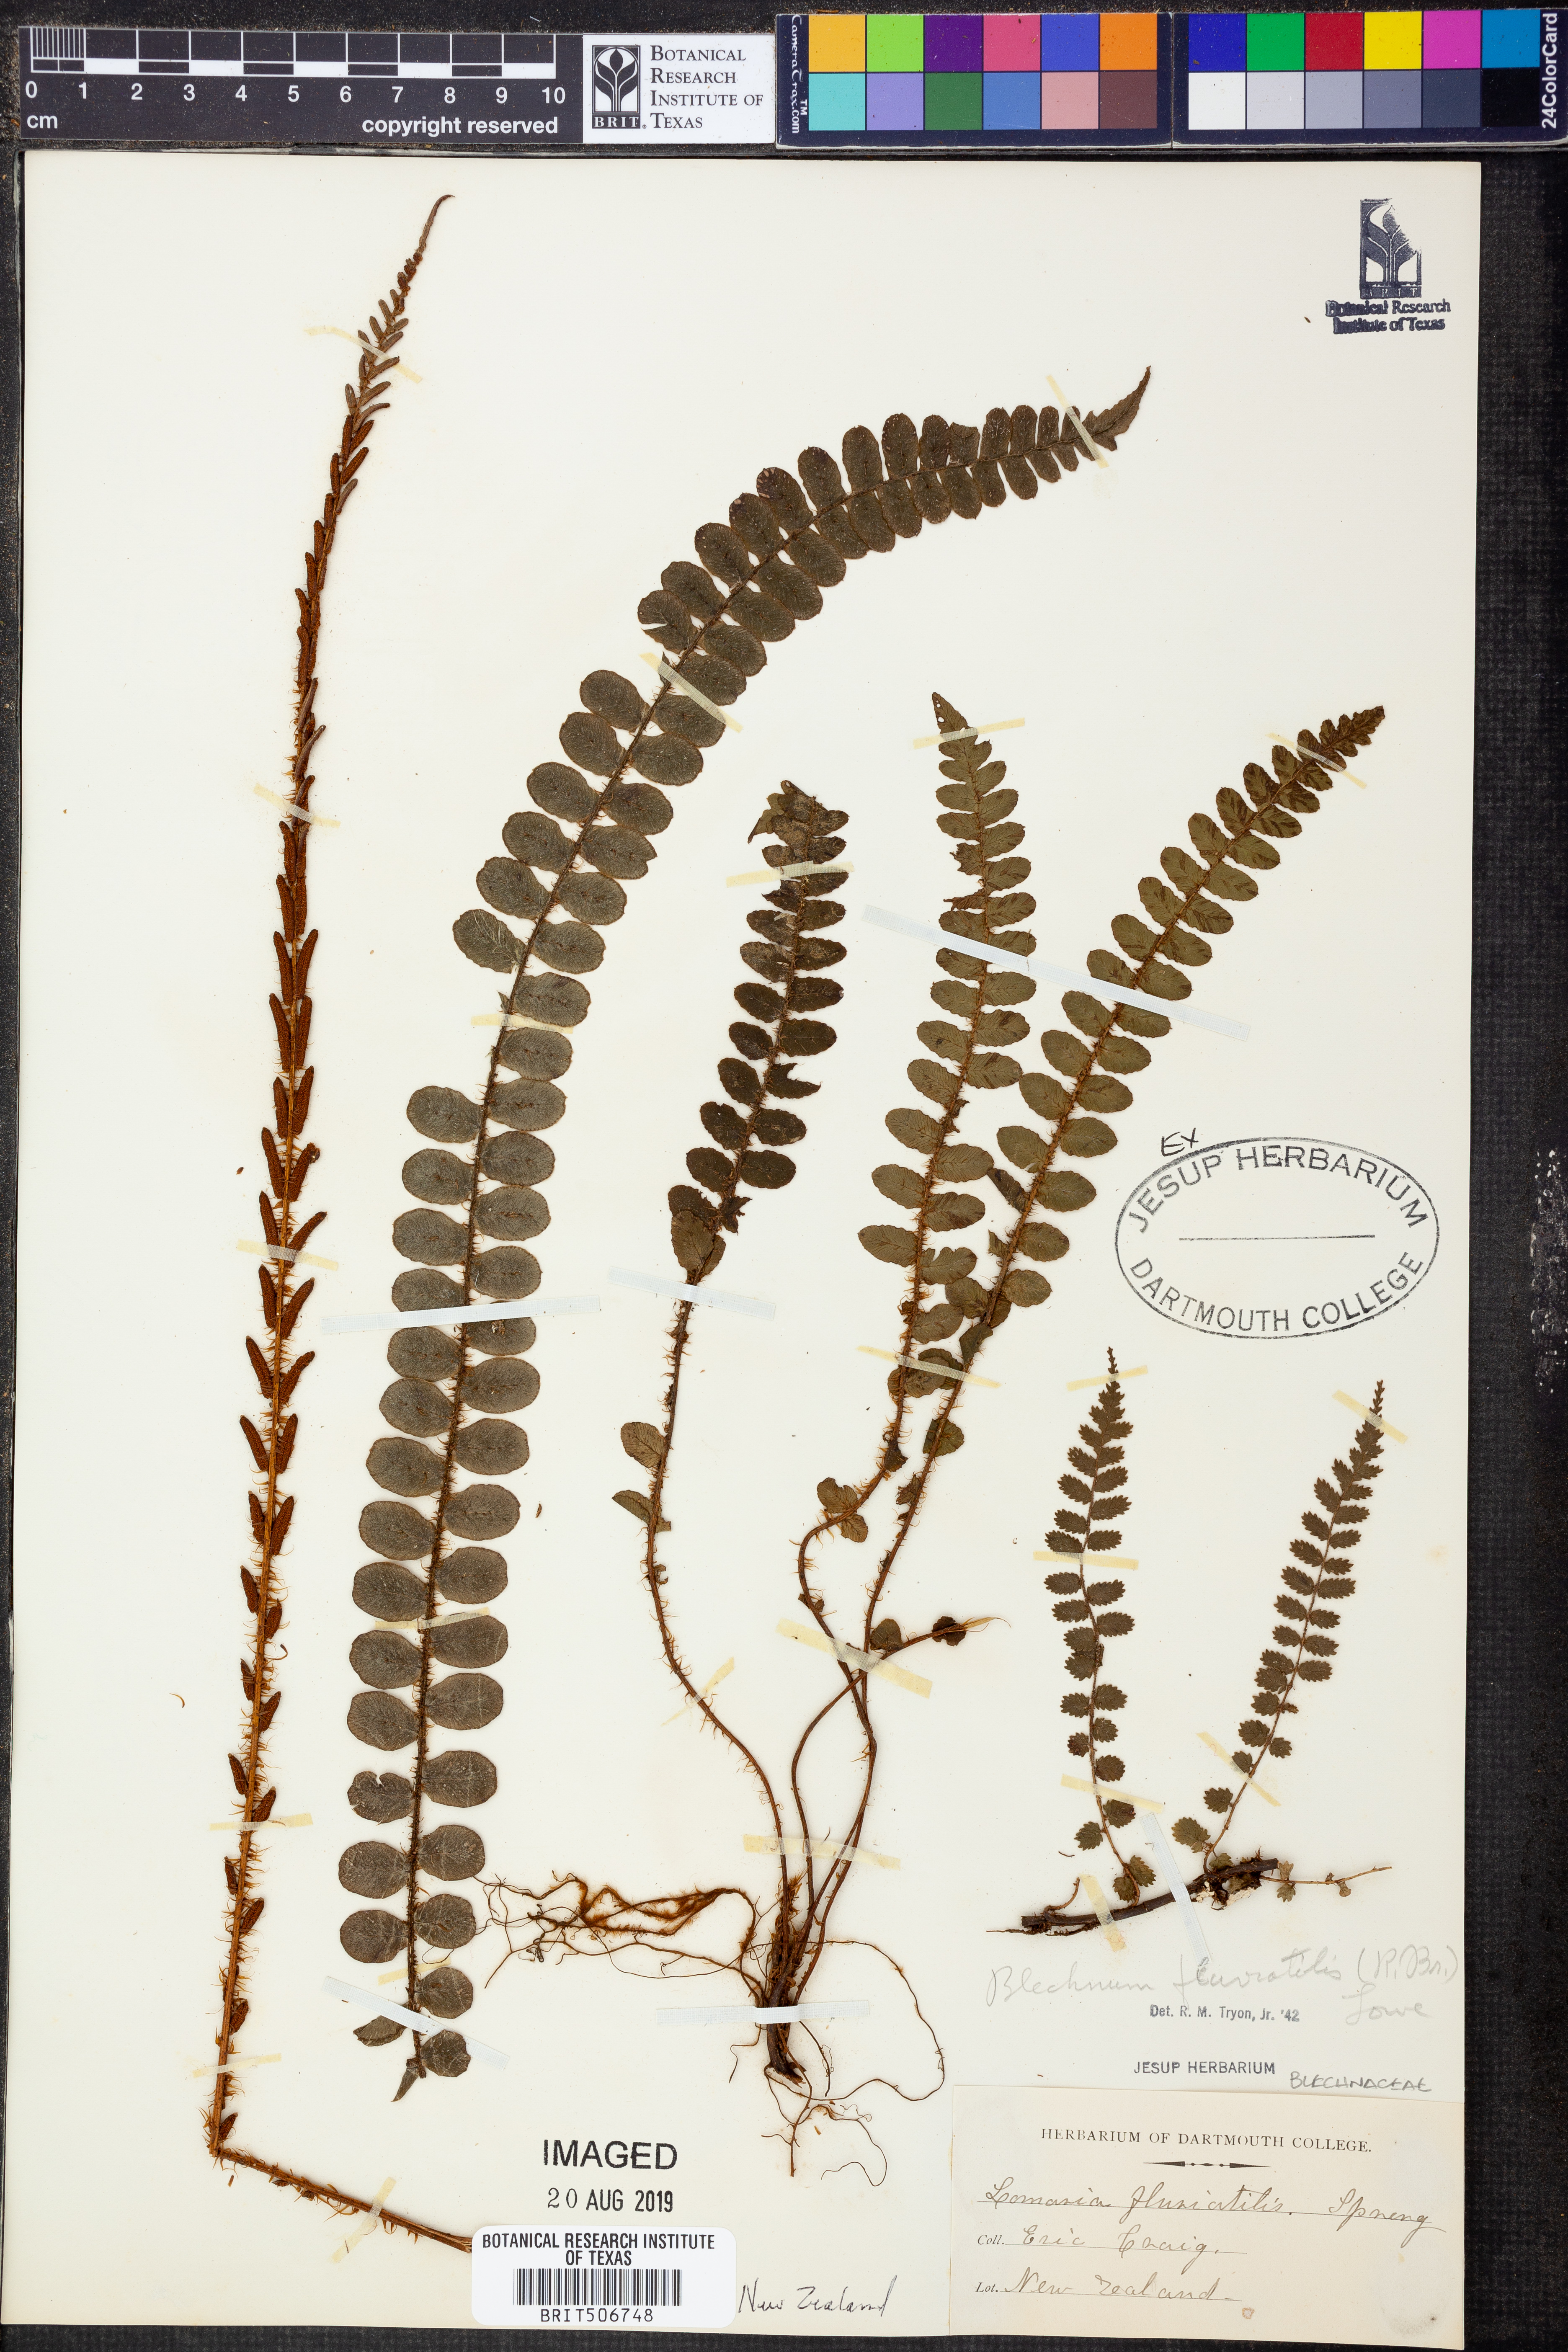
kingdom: Plantae
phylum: Tracheophyta
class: Polypodiopsida
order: Polypodiales
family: Blechnaceae
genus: Cranfillia
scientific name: Cranfillia fluviatilis
